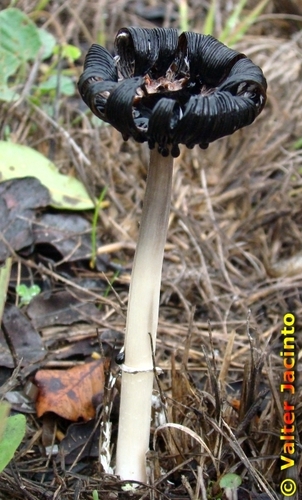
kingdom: Fungi
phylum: Basidiomycota
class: Agaricomycetes
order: Agaricales
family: Agaricaceae
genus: Coprinus
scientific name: Coprinus comatus
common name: Lawyer's wig
